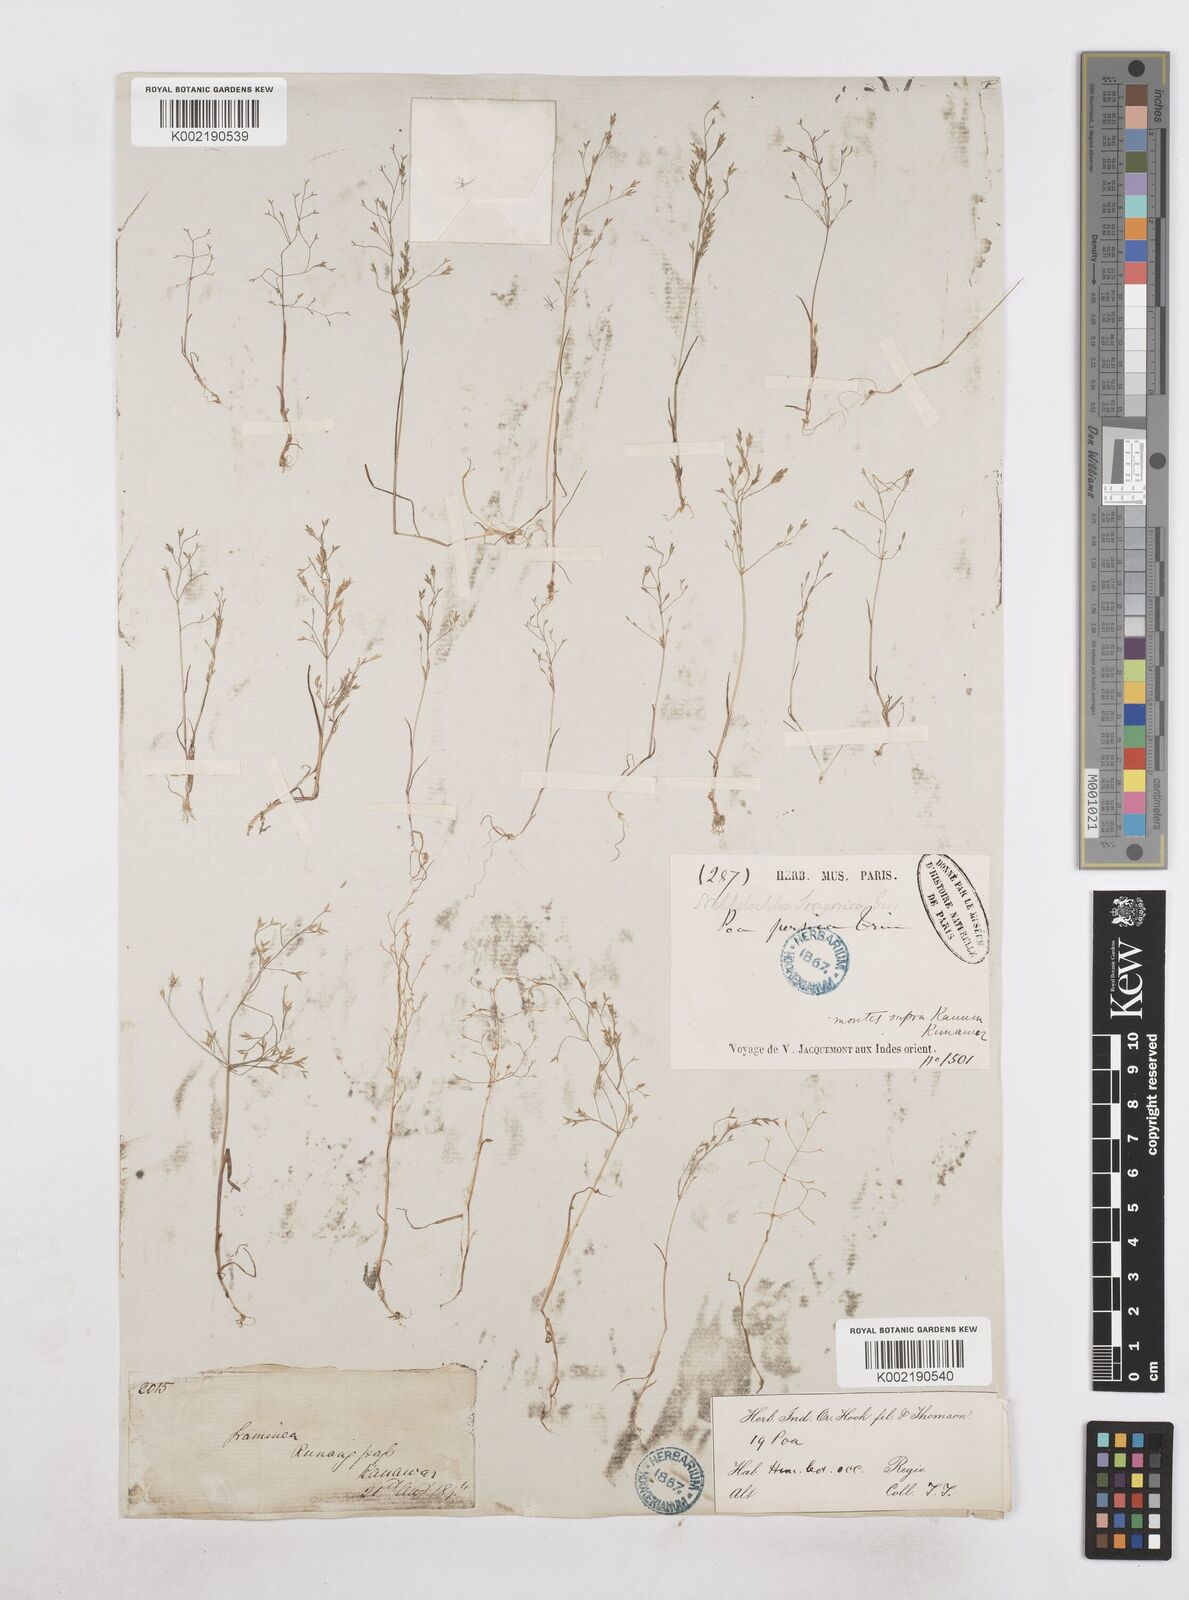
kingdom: Plantae
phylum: Tracheophyta
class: Liliopsida
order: Poales
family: Poaceae
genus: Poa
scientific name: Poa diaphora
